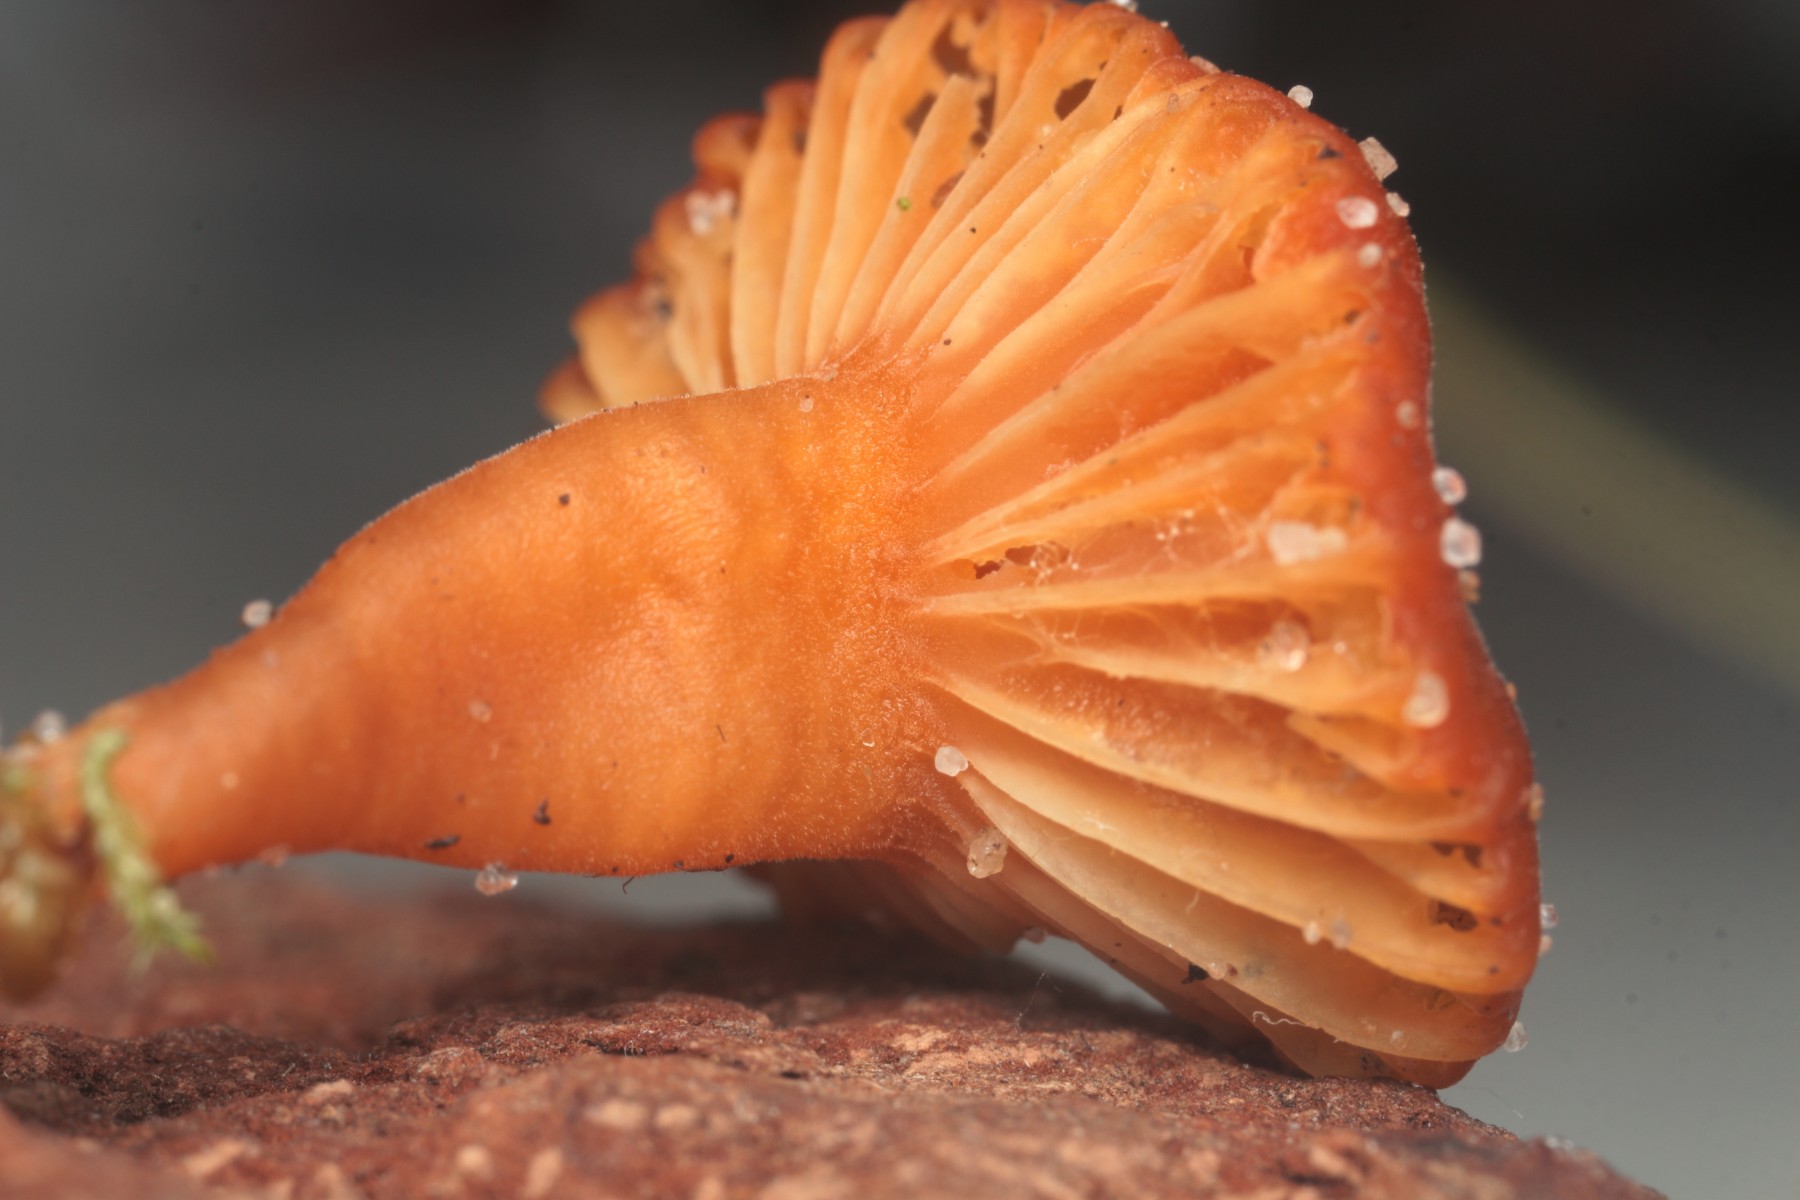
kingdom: Fungi
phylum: Basidiomycota
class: Agaricomycetes
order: Agaricales
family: Hygrophoraceae
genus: Hygrocybe
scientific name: Hygrocybe
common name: vokshat
